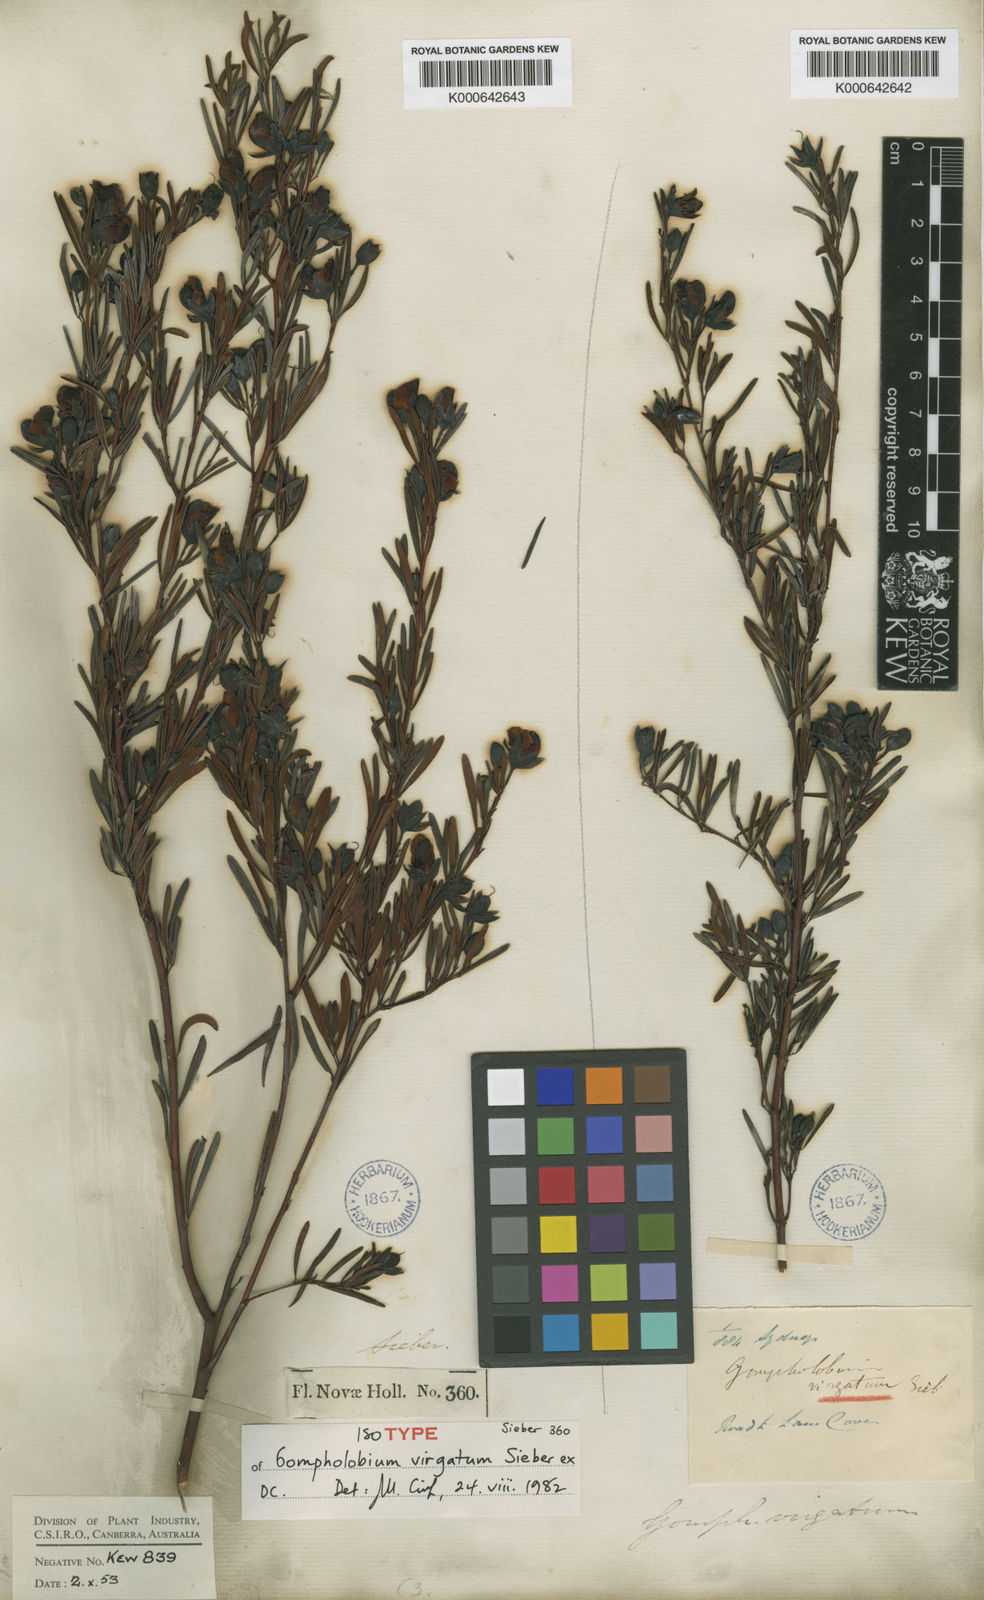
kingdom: Plantae
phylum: Tracheophyta
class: Magnoliopsida
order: Fabales
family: Fabaceae
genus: Gompholobium
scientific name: Gompholobium virgatum
